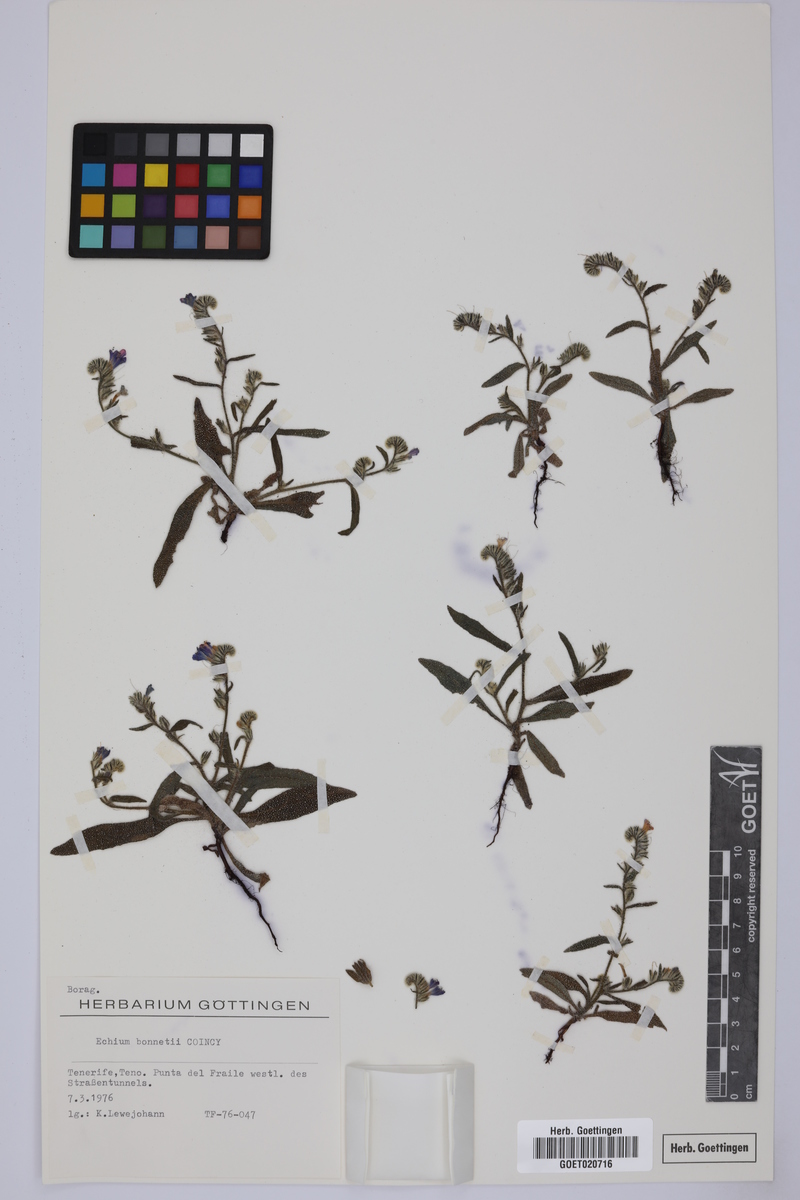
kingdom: Plantae
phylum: Tracheophyta
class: Magnoliopsida
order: Boraginales
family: Boraginaceae
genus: Echium
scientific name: Echium bonnetii
